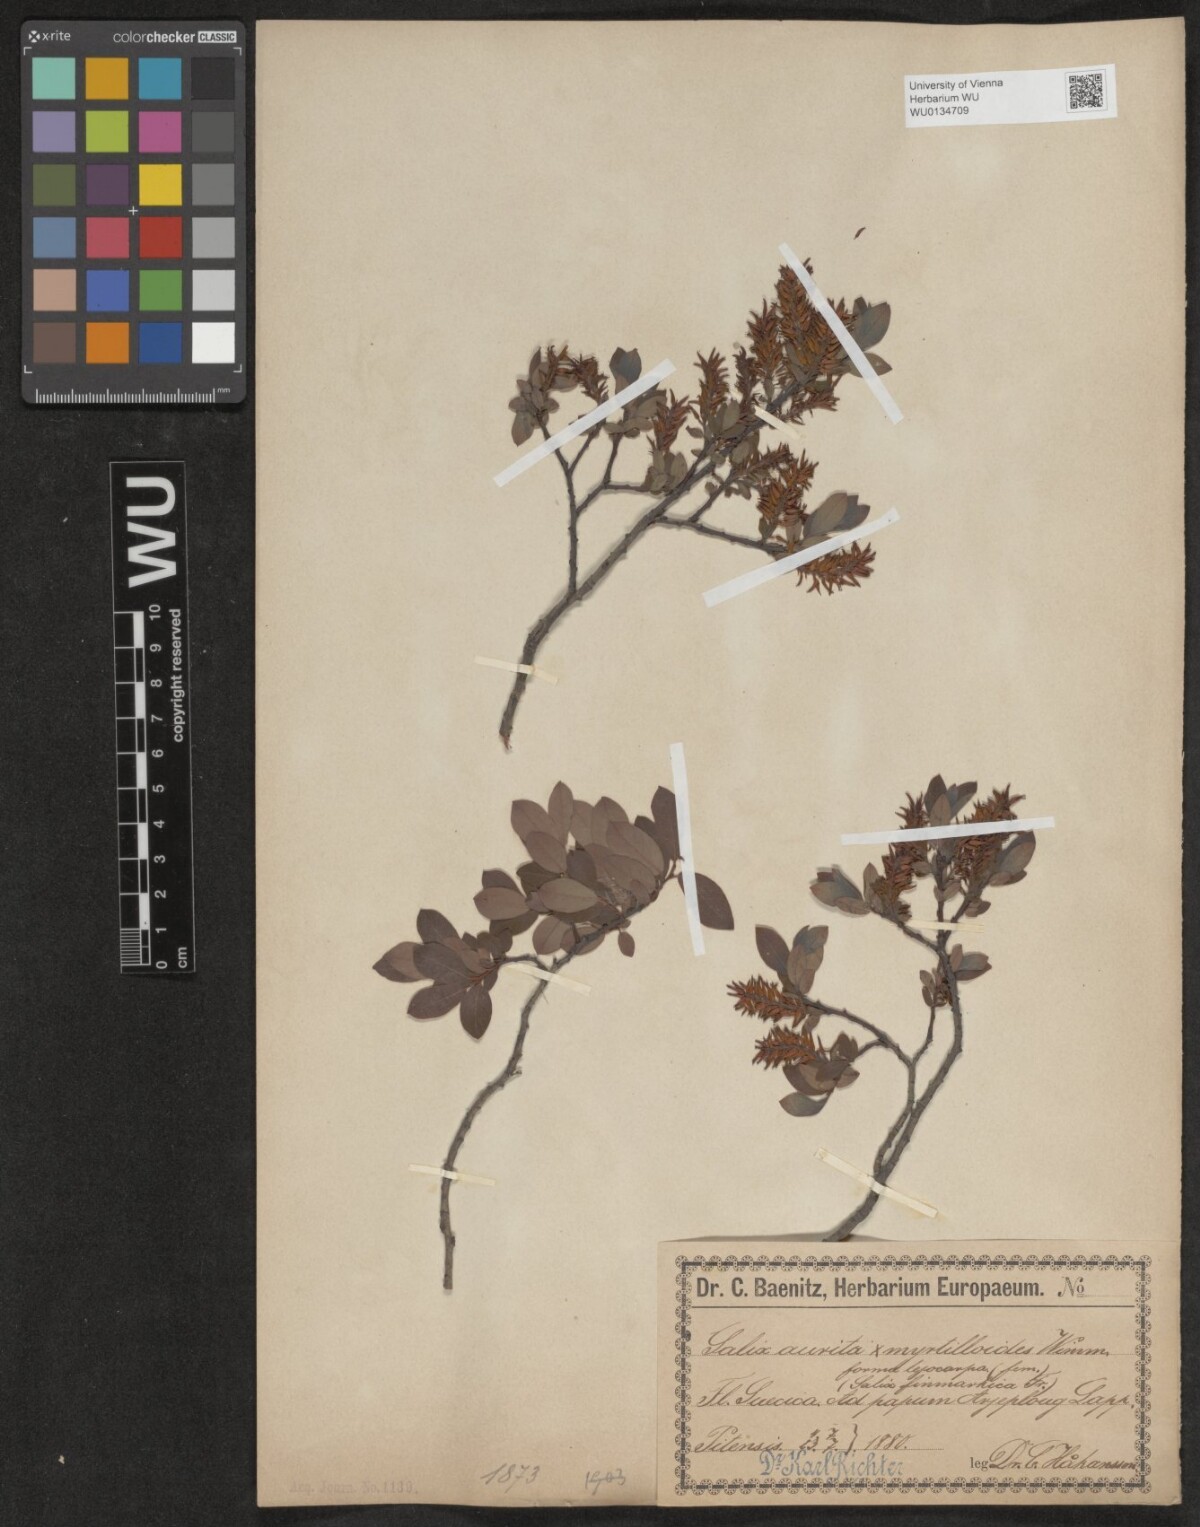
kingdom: Plantae
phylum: Tracheophyta
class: Magnoliopsida
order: Malpighiales
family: Salicaceae
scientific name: Salicaceae
